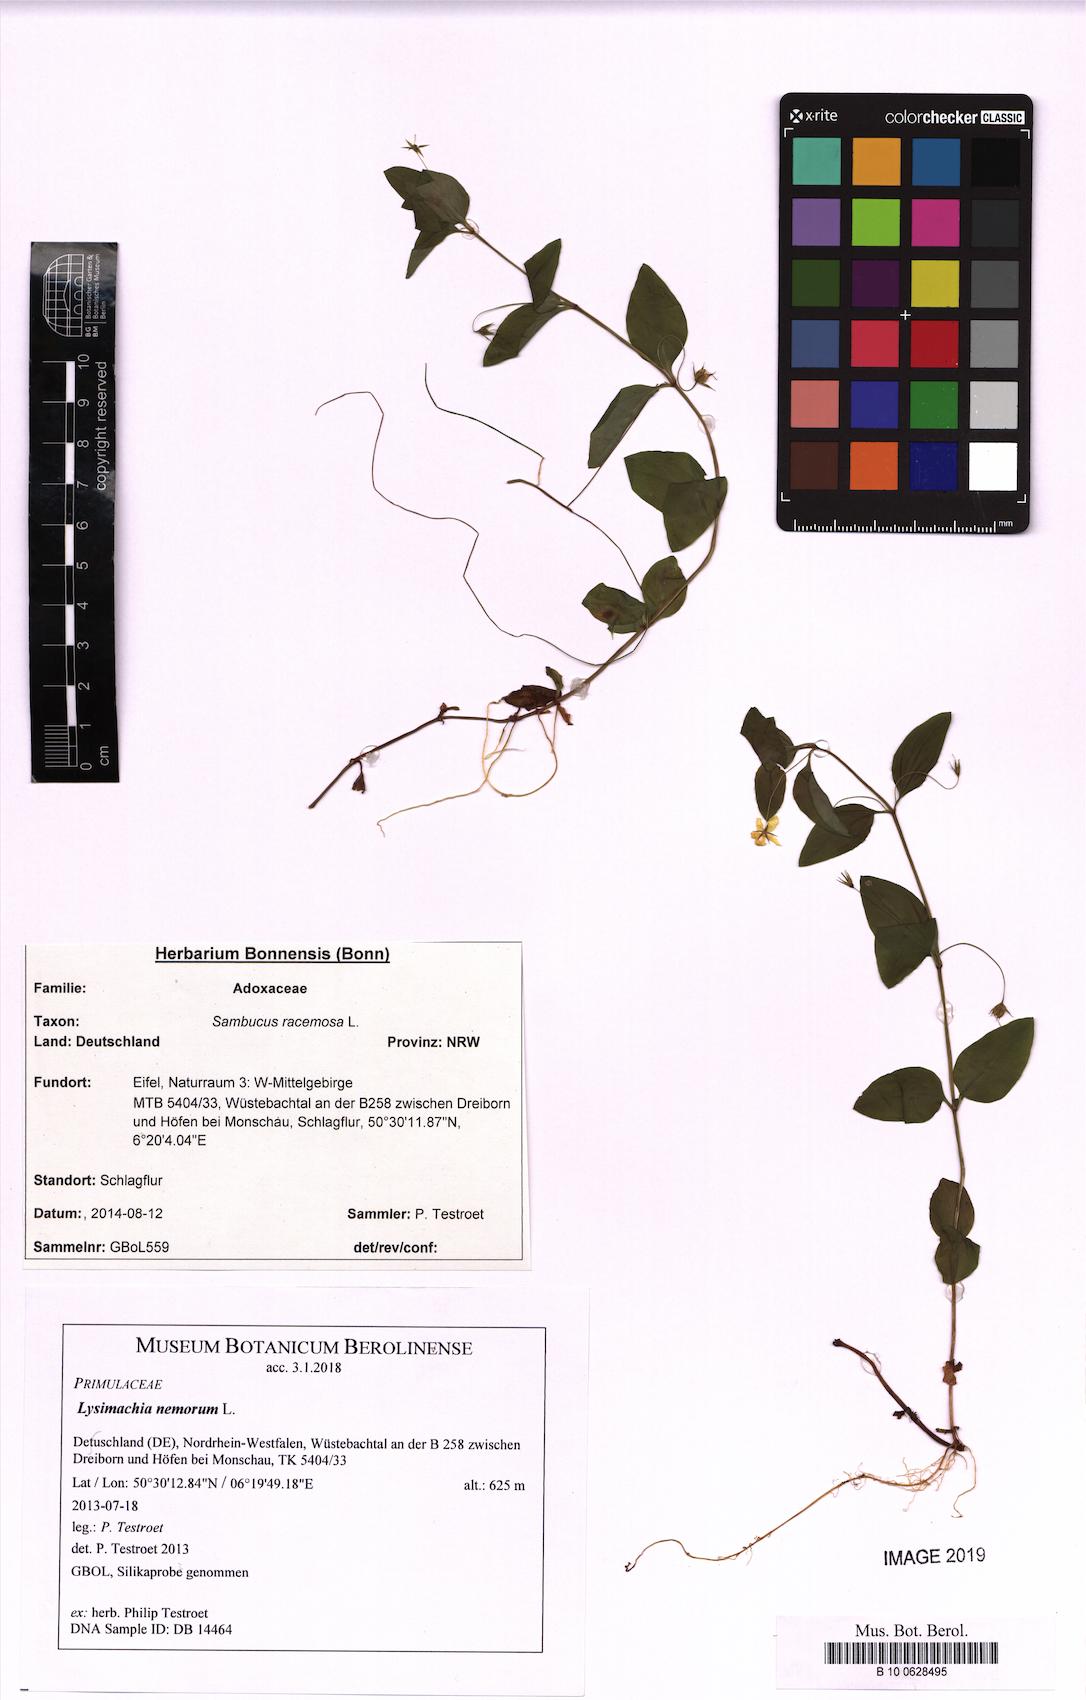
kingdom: Plantae
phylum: Tracheophyta
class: Magnoliopsida
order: Ericales
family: Primulaceae
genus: Lysimachia
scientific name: Lysimachia nemorum
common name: Yellow pimpernel
